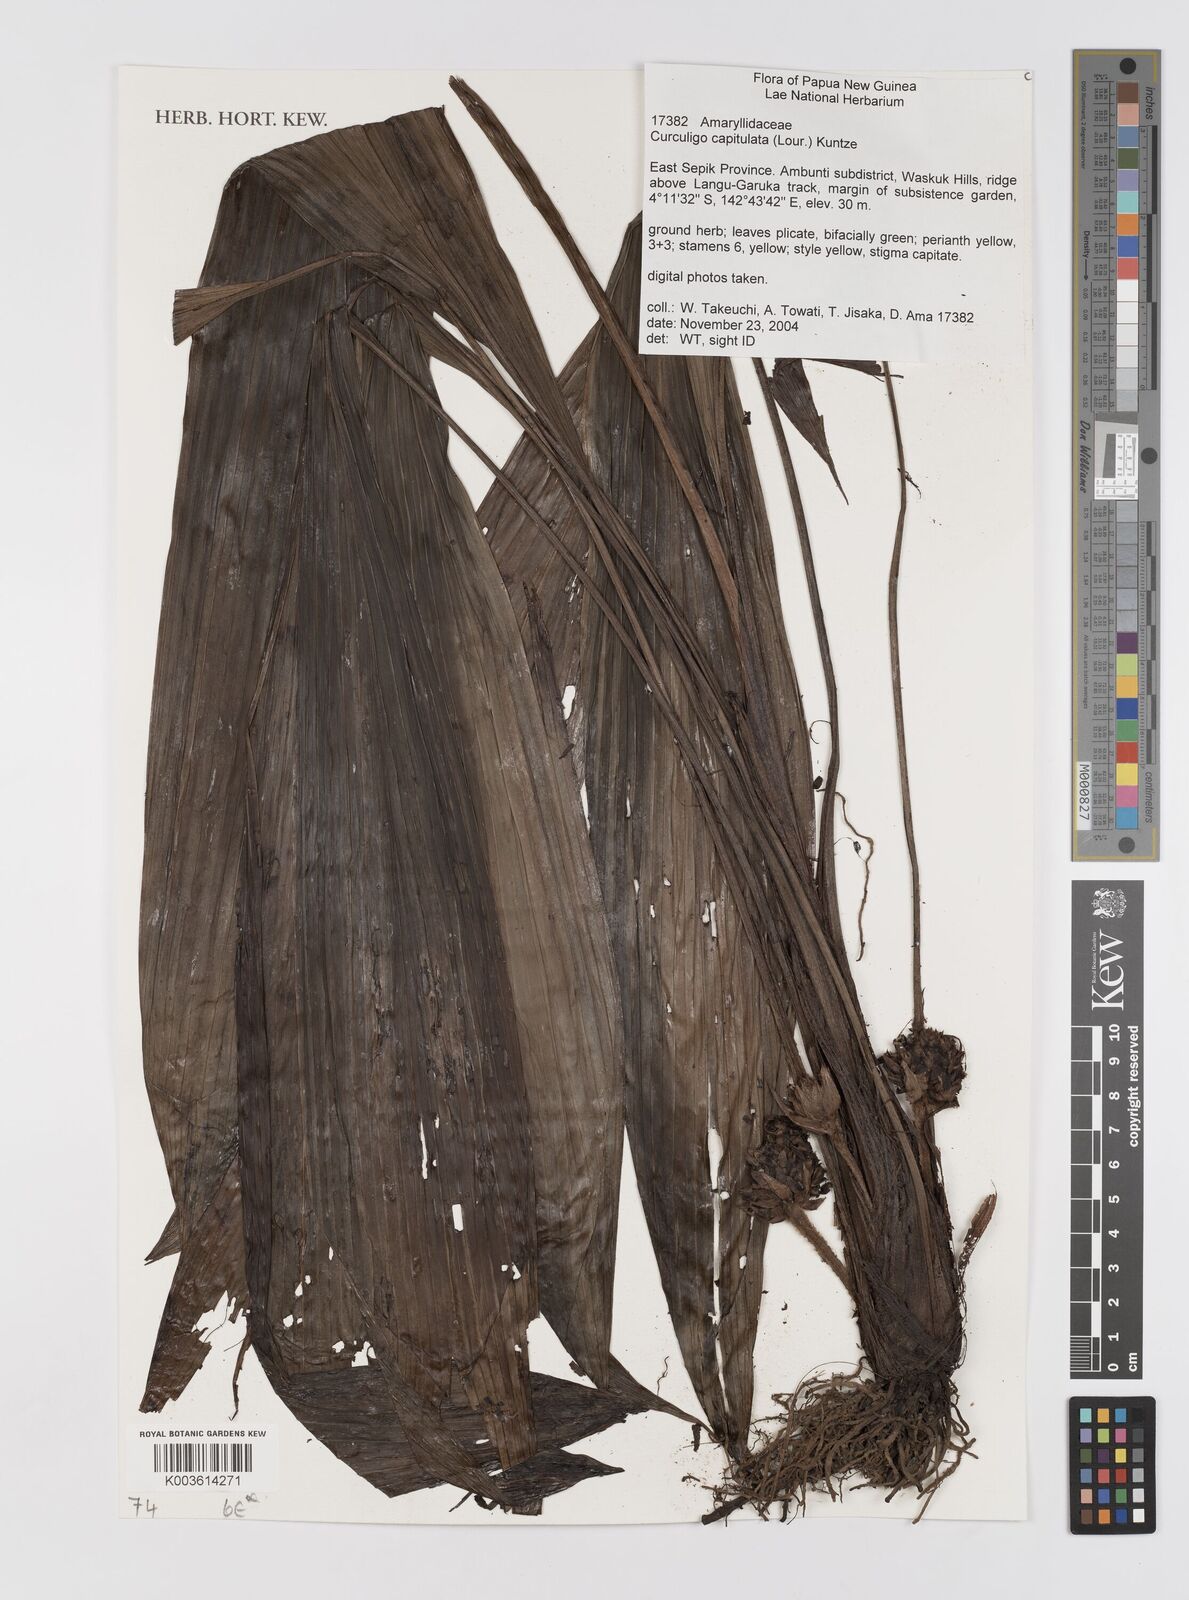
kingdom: Plantae
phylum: Tracheophyta
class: Liliopsida
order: Asparagales
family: Hypoxidaceae
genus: Curculigo
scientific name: Curculigo capitulata
